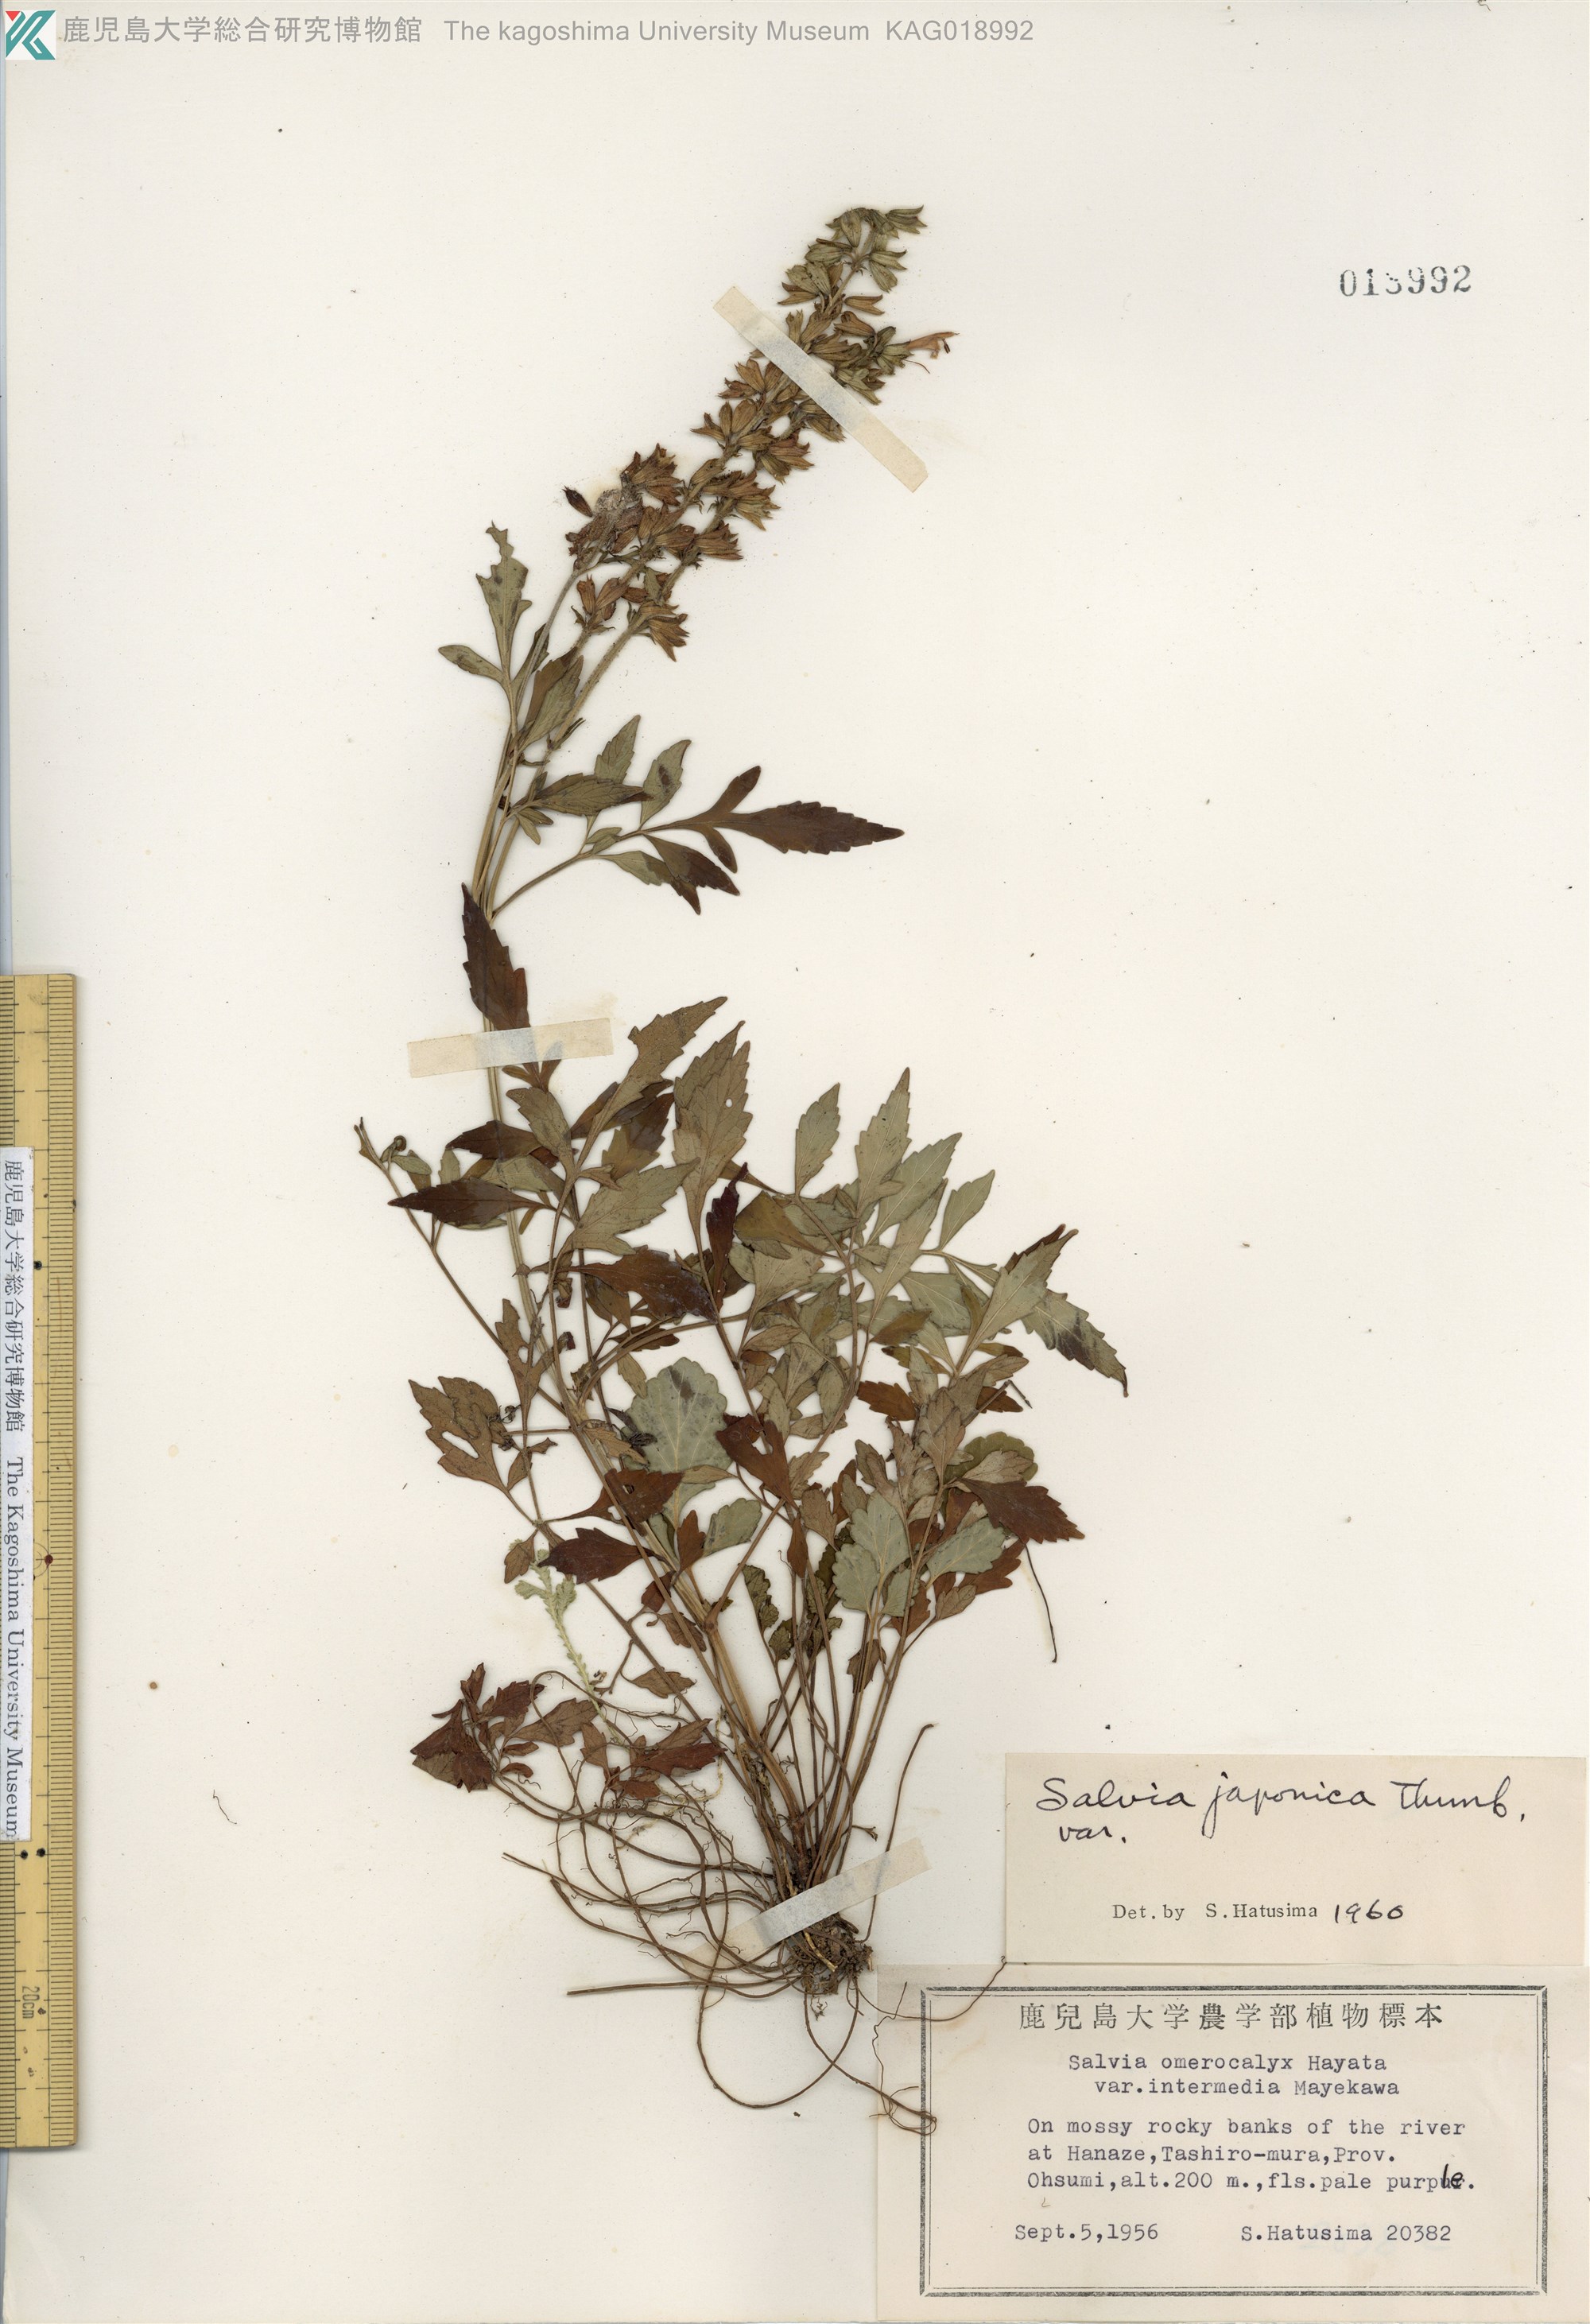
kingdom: Plantae
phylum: Tracheophyta
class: Magnoliopsida
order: Lamiales
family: Lamiaceae
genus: Salvia
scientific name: Salvia japonica
